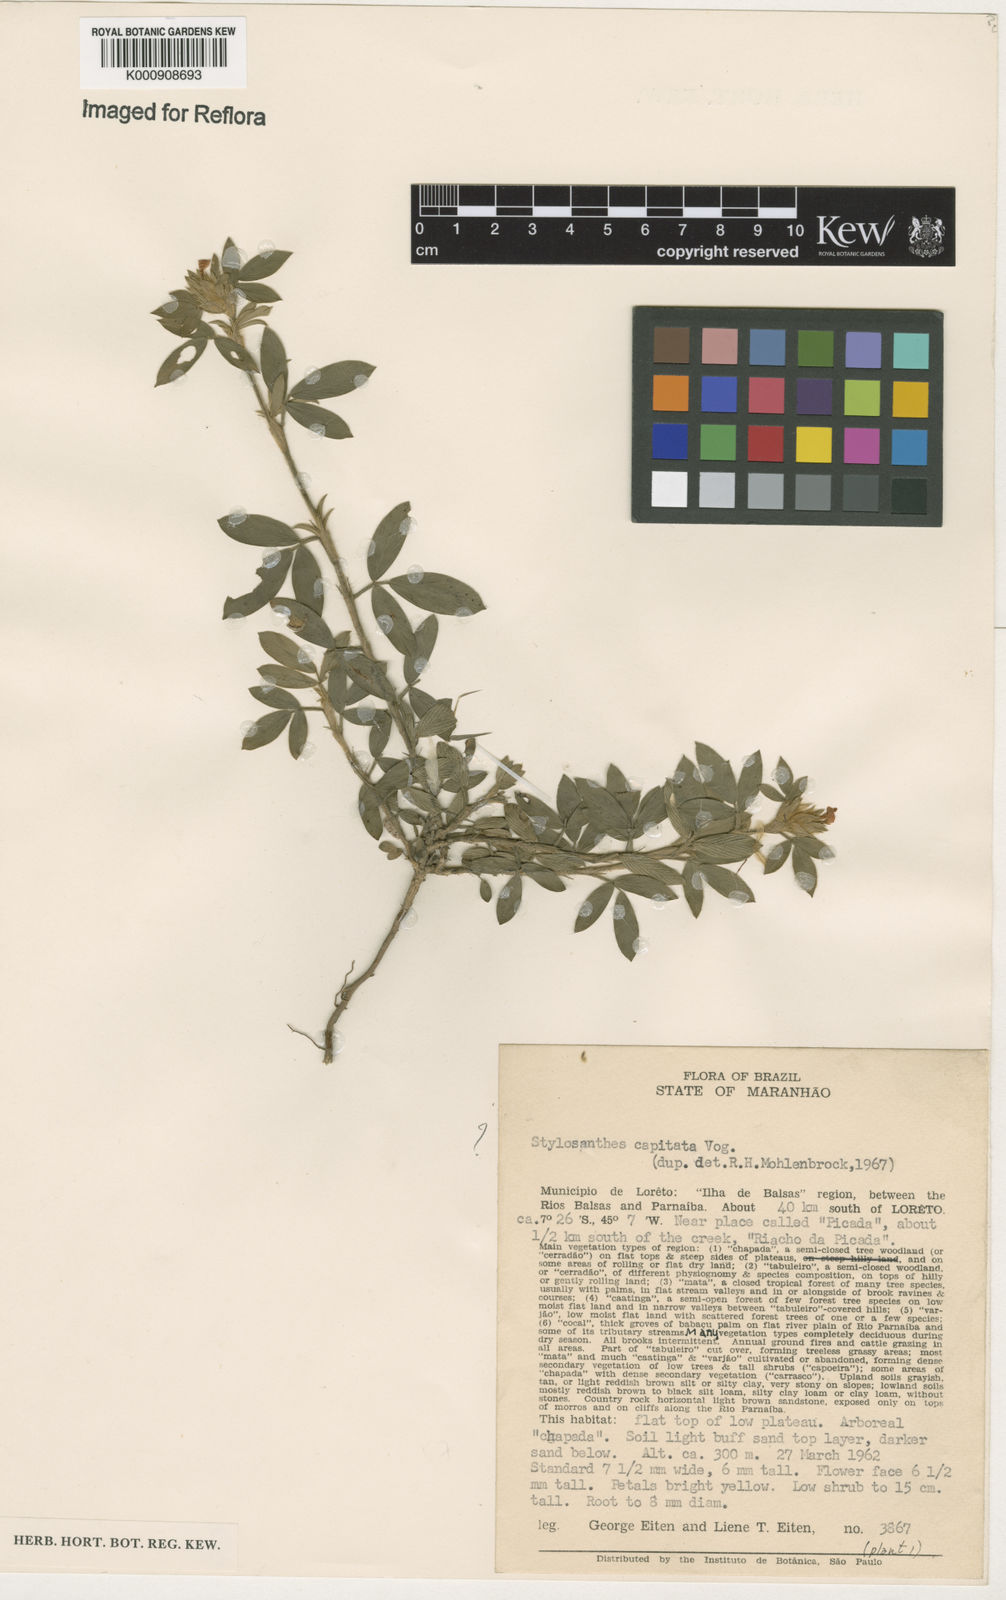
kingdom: Plantae
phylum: Tracheophyta
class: Magnoliopsida
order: Fabales
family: Fabaceae
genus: Stylosanthes
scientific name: Stylosanthes capitata
